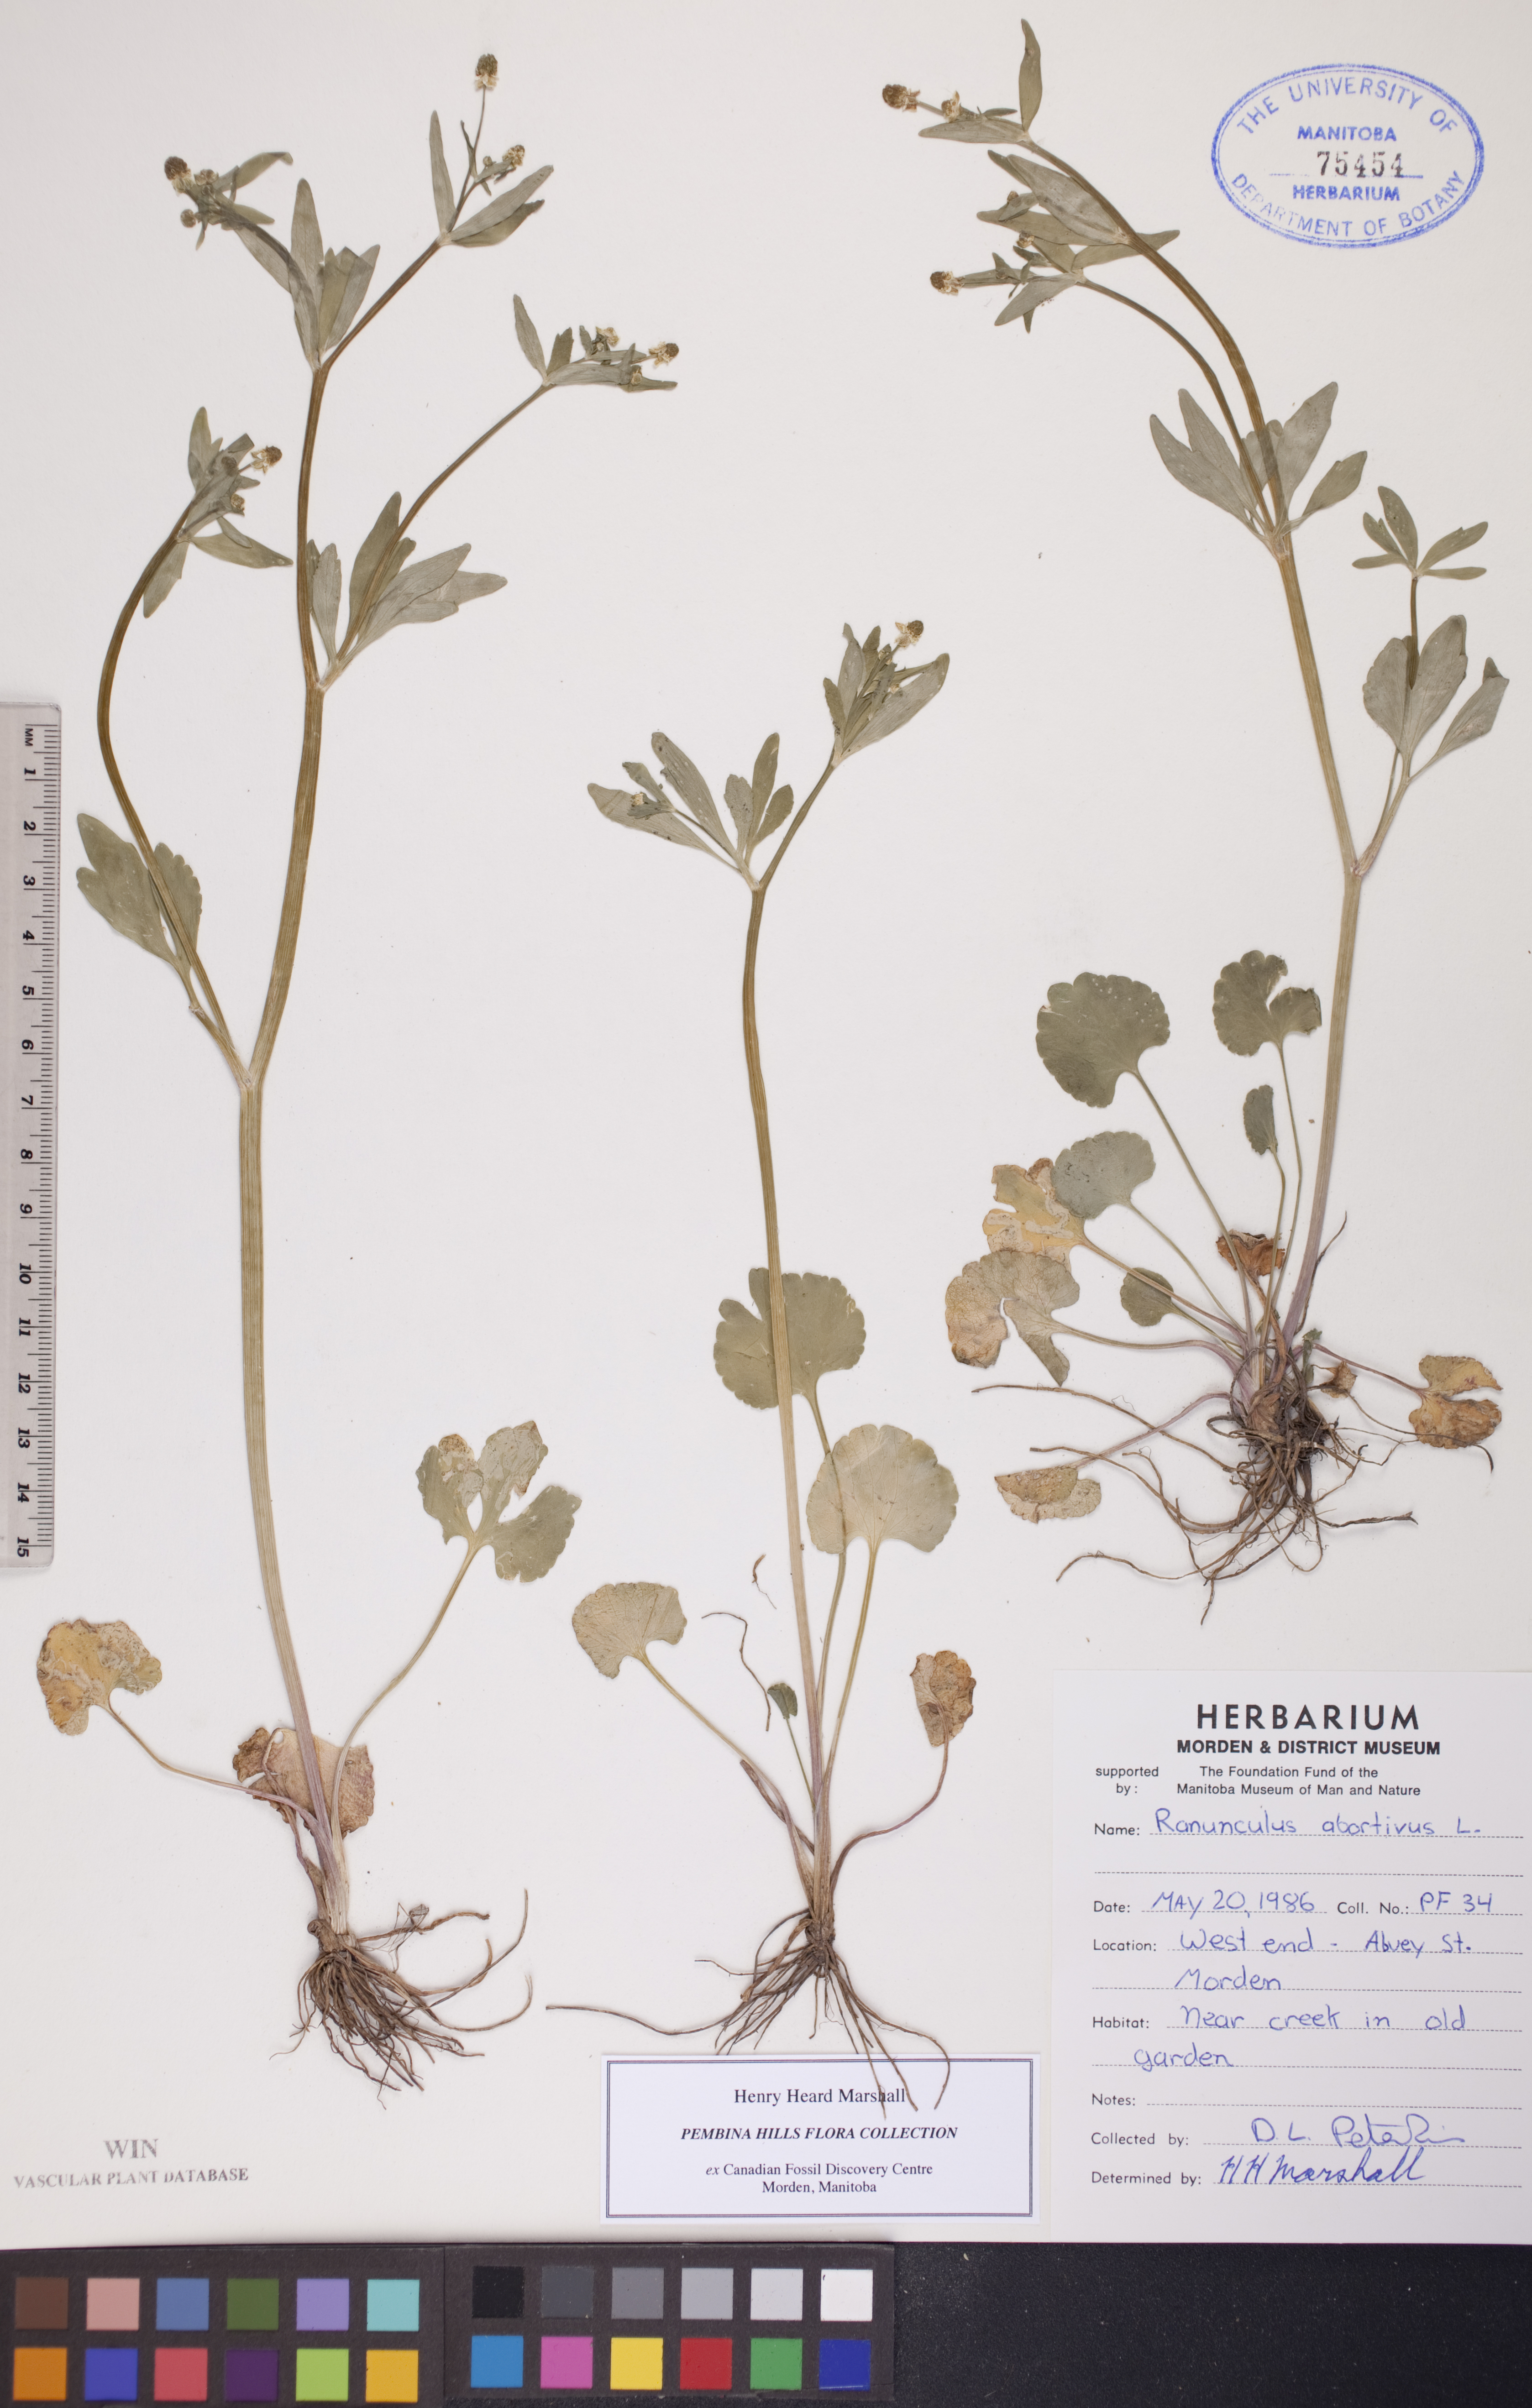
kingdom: Plantae
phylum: Tracheophyta
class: Magnoliopsida
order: Ranunculales
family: Ranunculaceae
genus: Ranunculus
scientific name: Ranunculus abortivus
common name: Early wood buttercup
